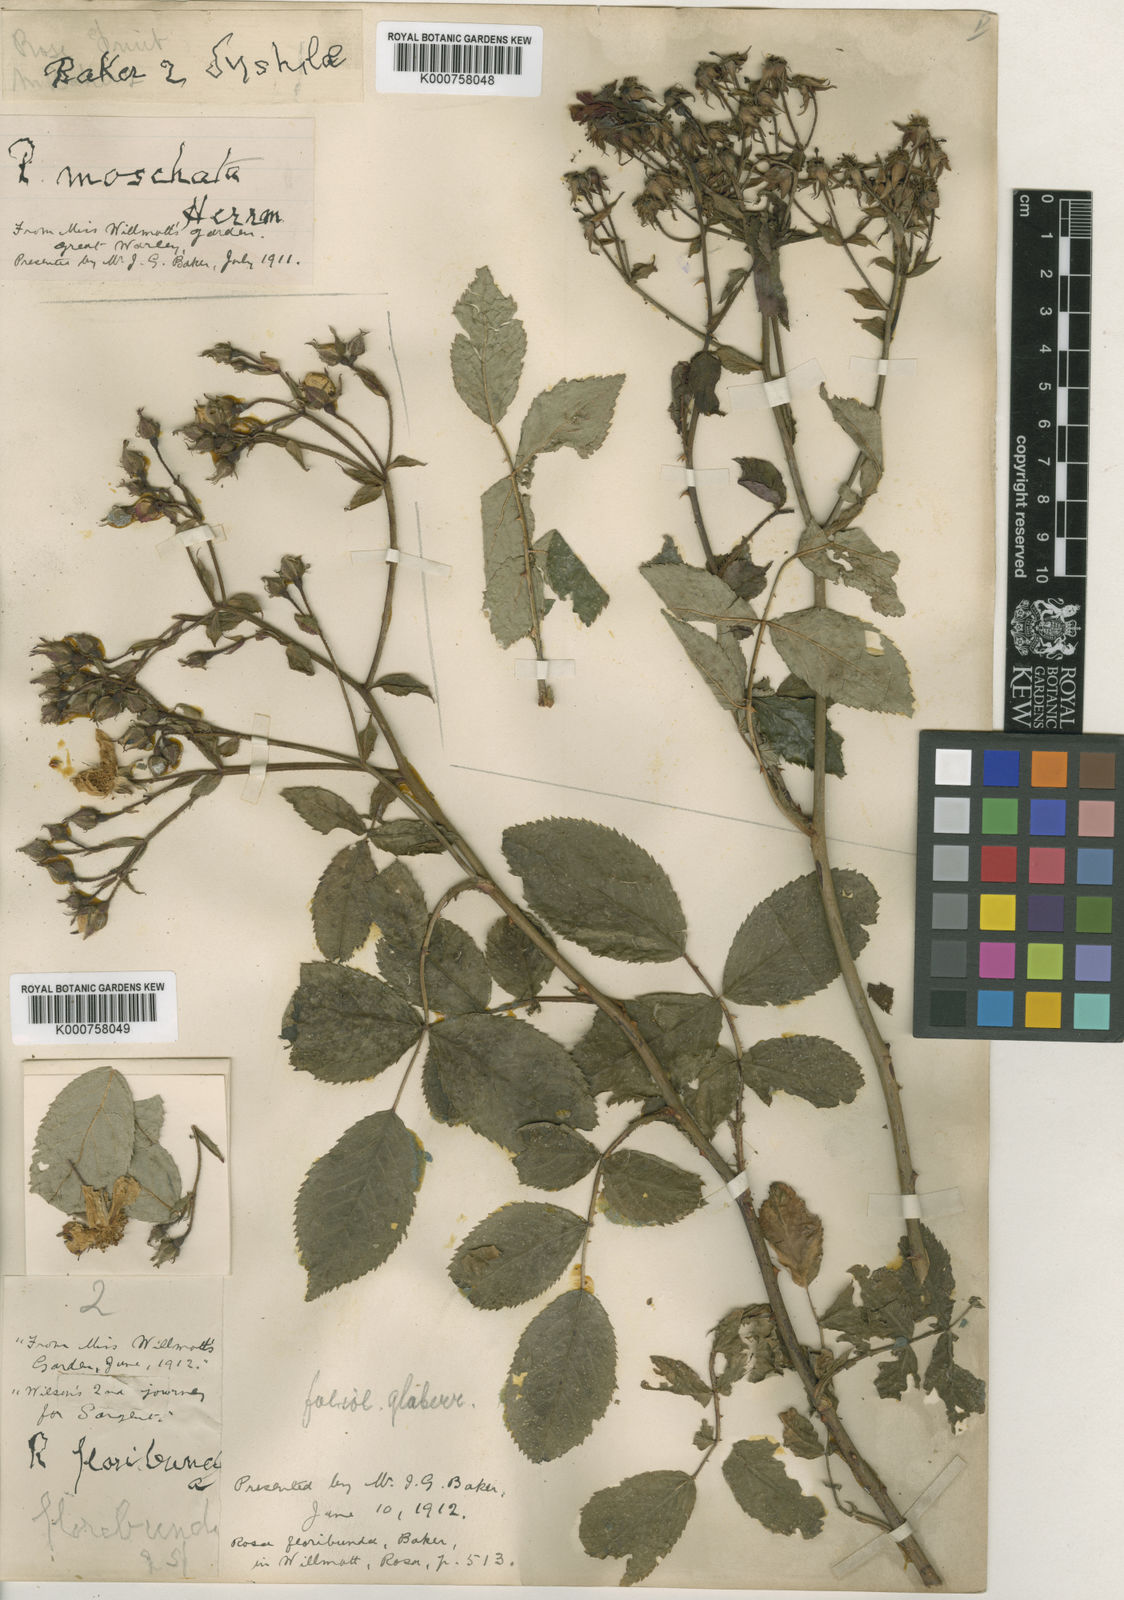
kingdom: Plantae
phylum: Tracheophyta
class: Magnoliopsida
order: Rosales
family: Rosaceae
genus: Rosa
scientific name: Rosa helenae
